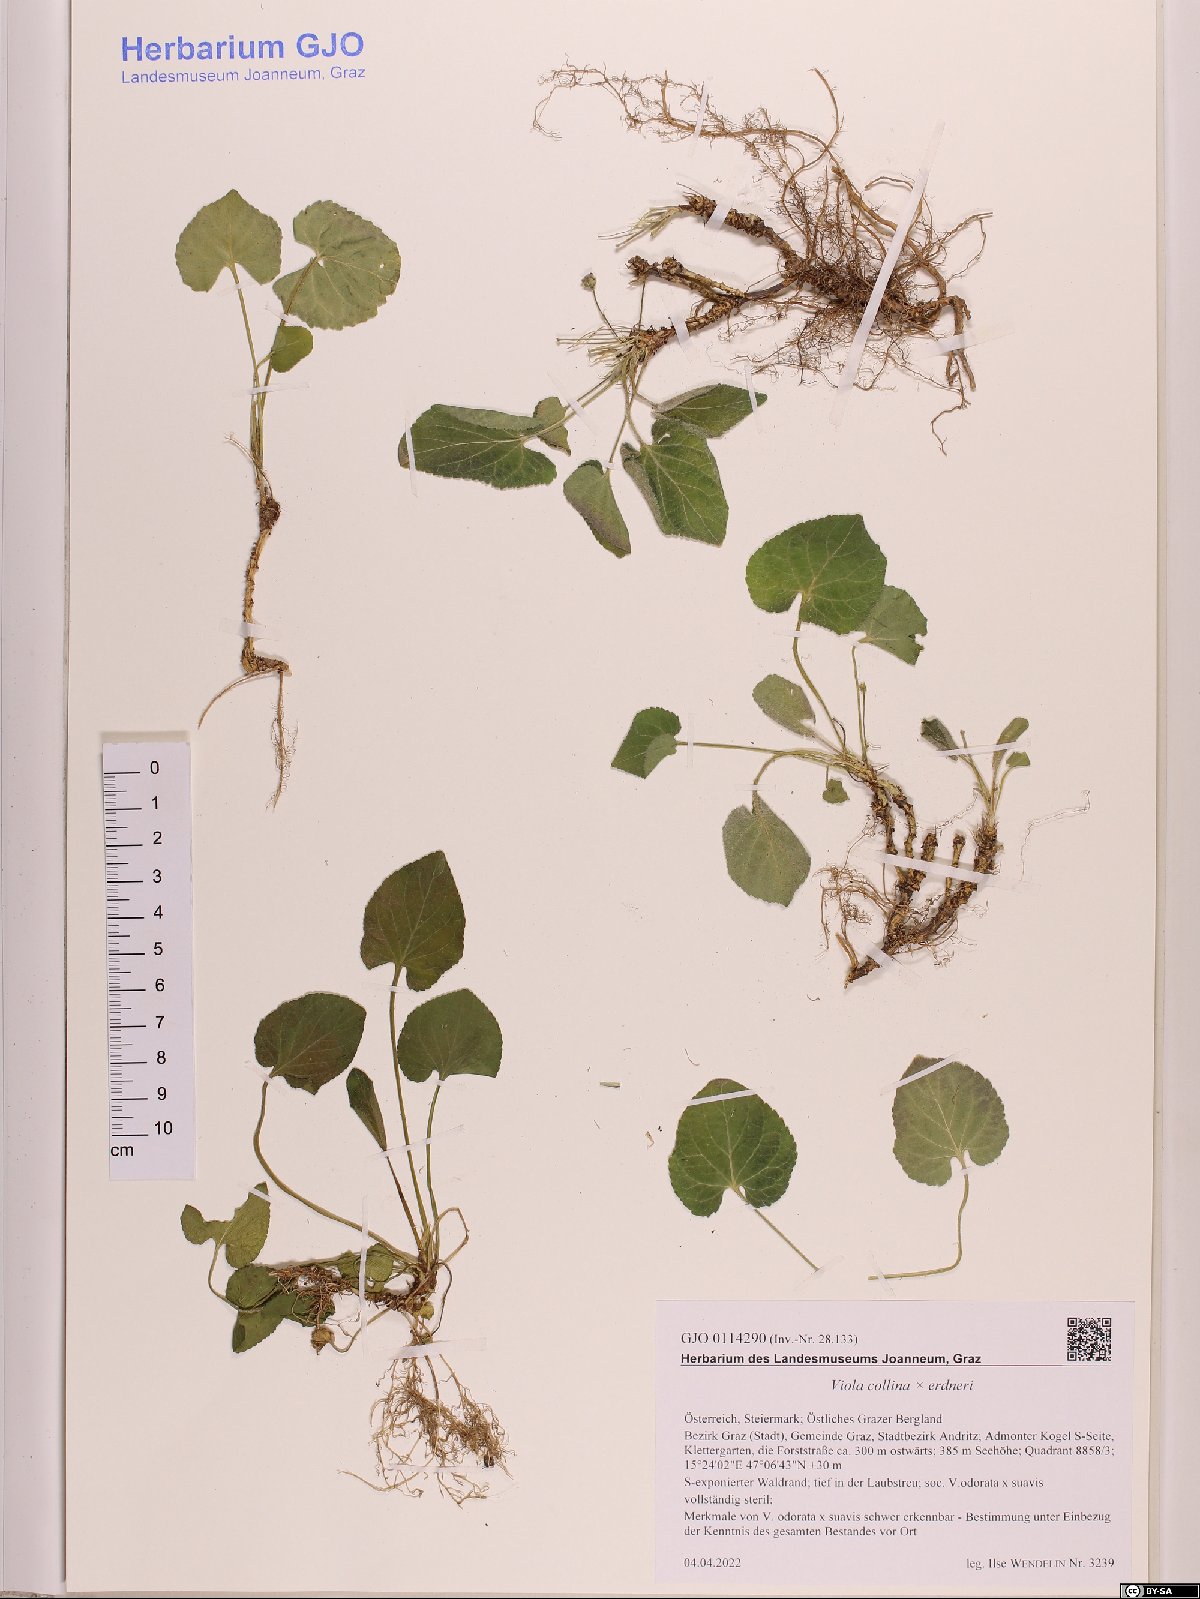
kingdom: Plantae
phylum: Tracheophyta
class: Magnoliopsida
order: Malpighiales
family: Violaceae
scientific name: Violaceae
